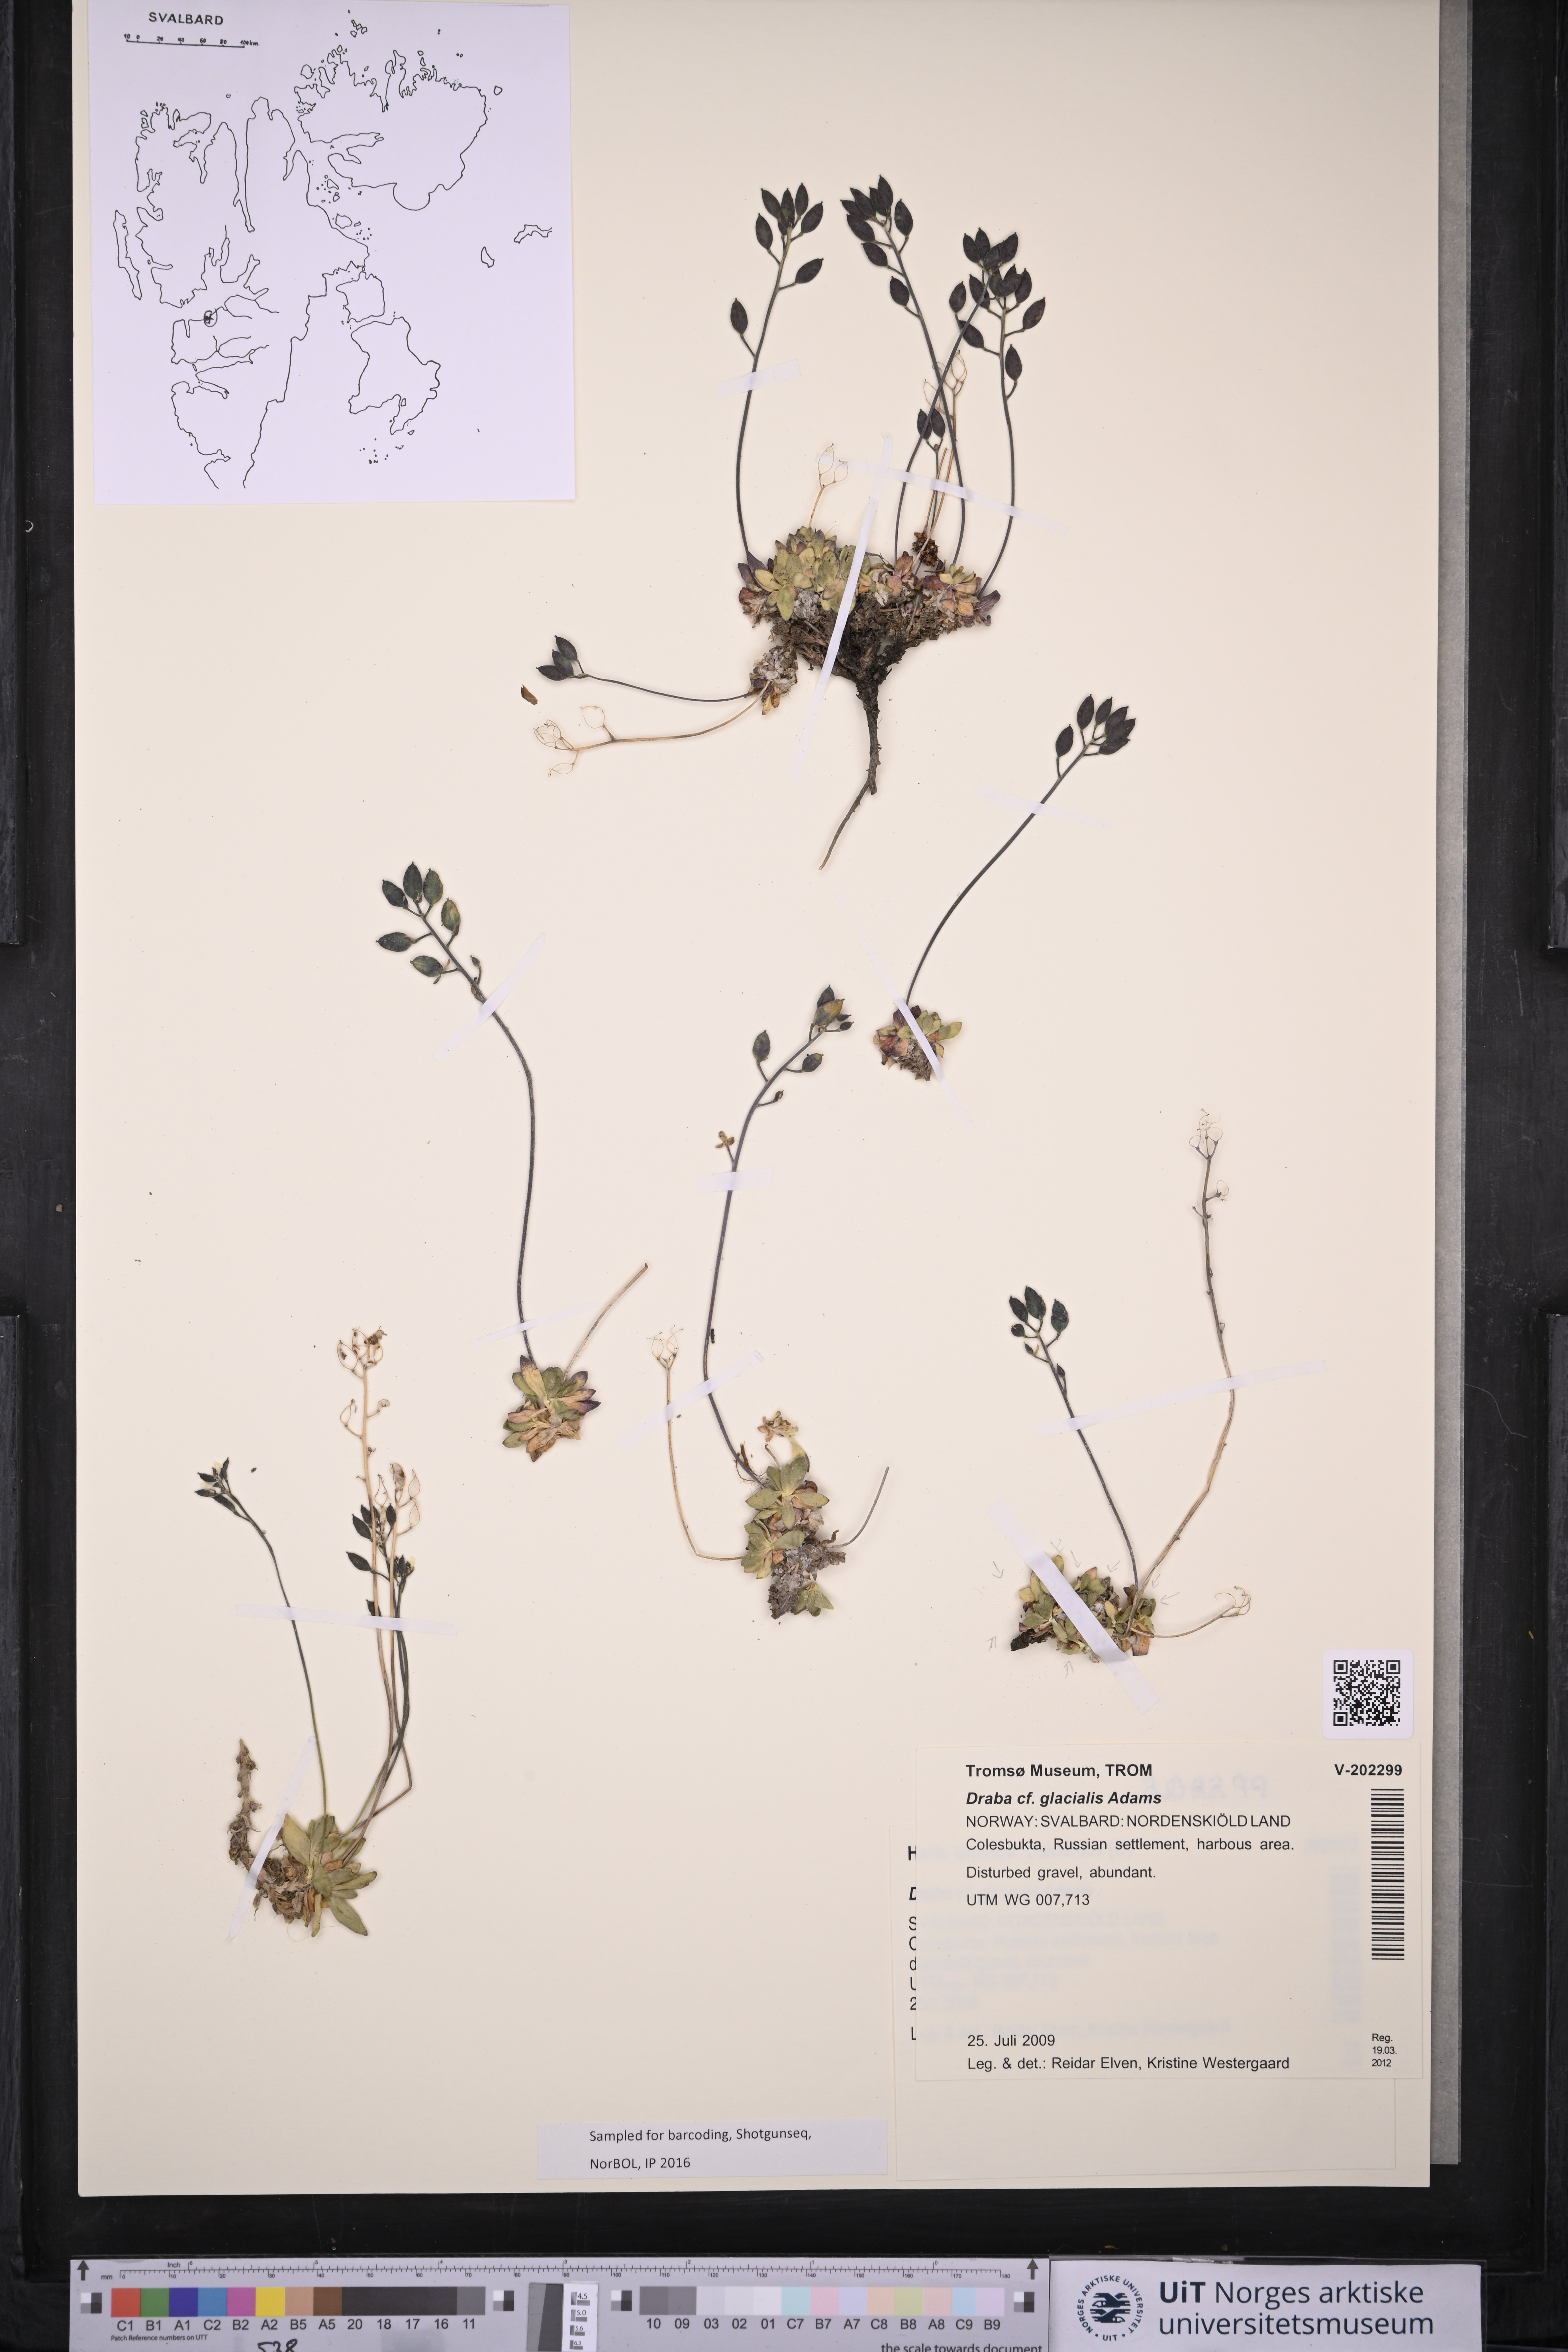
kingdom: Plantae
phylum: Tracheophyta
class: Magnoliopsida
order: Brassicales
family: Brassicaceae
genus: Draba
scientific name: Draba glacialis
